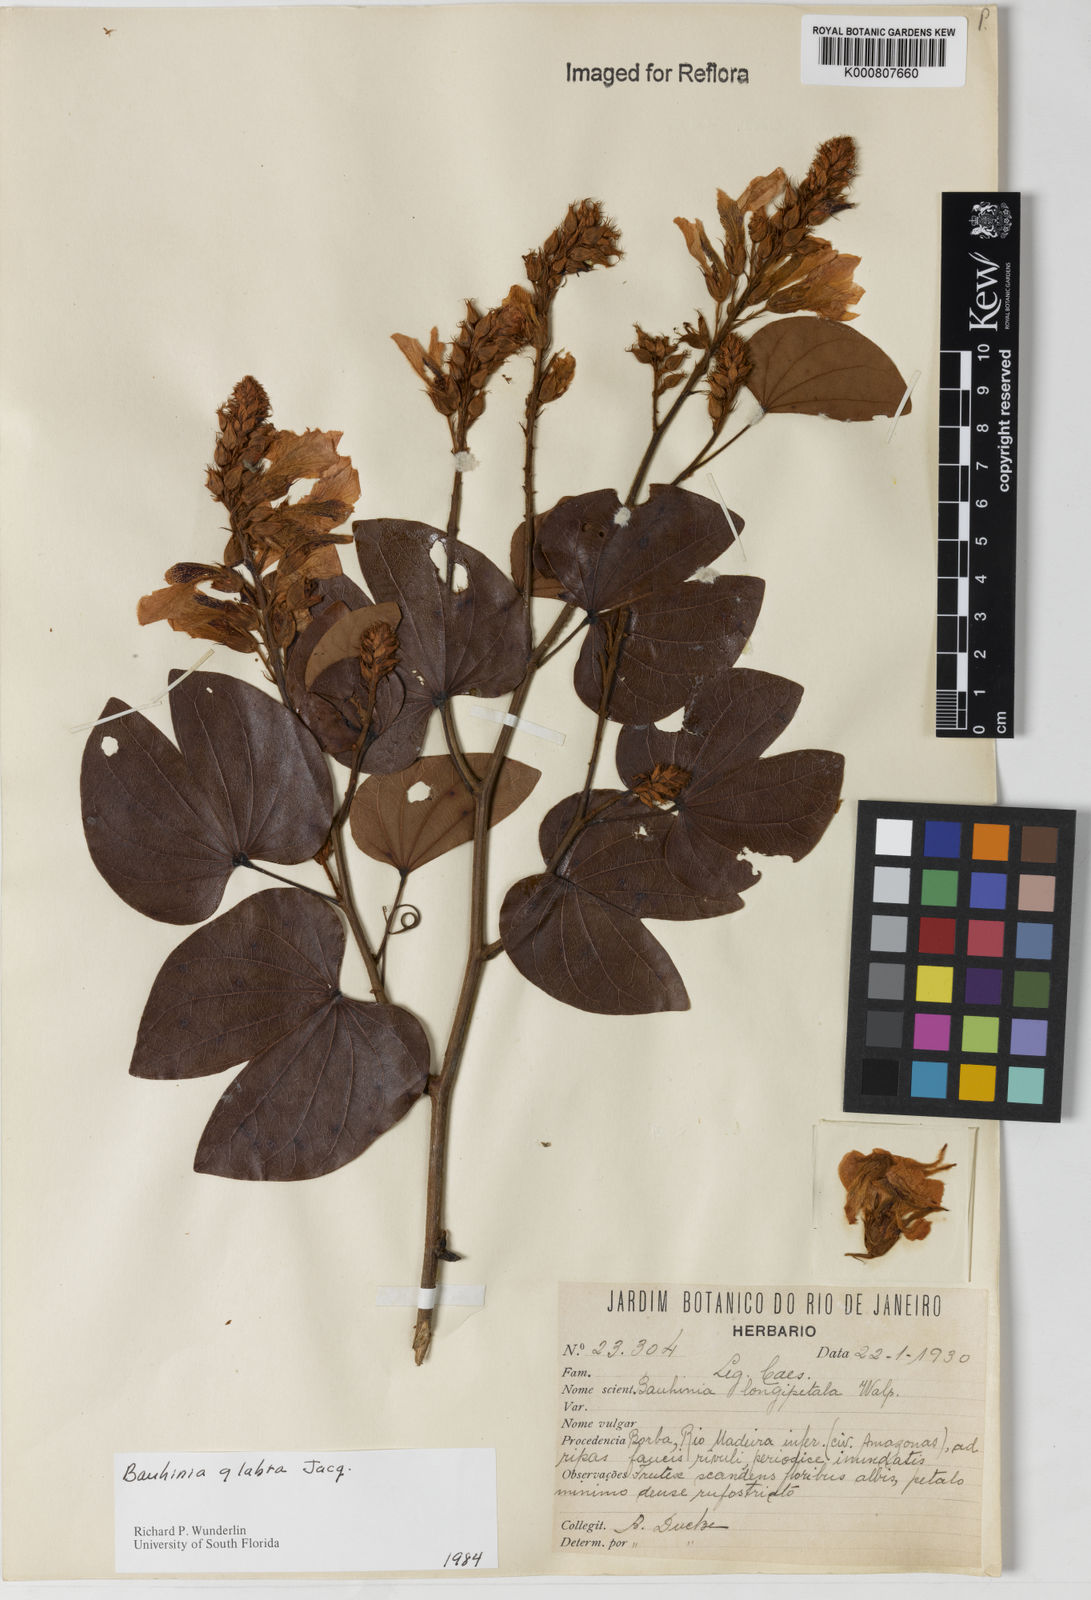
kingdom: Plantae
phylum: Tracheophyta
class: Magnoliopsida
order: Fabales
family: Fabaceae
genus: Schnella
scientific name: Schnella glabra
